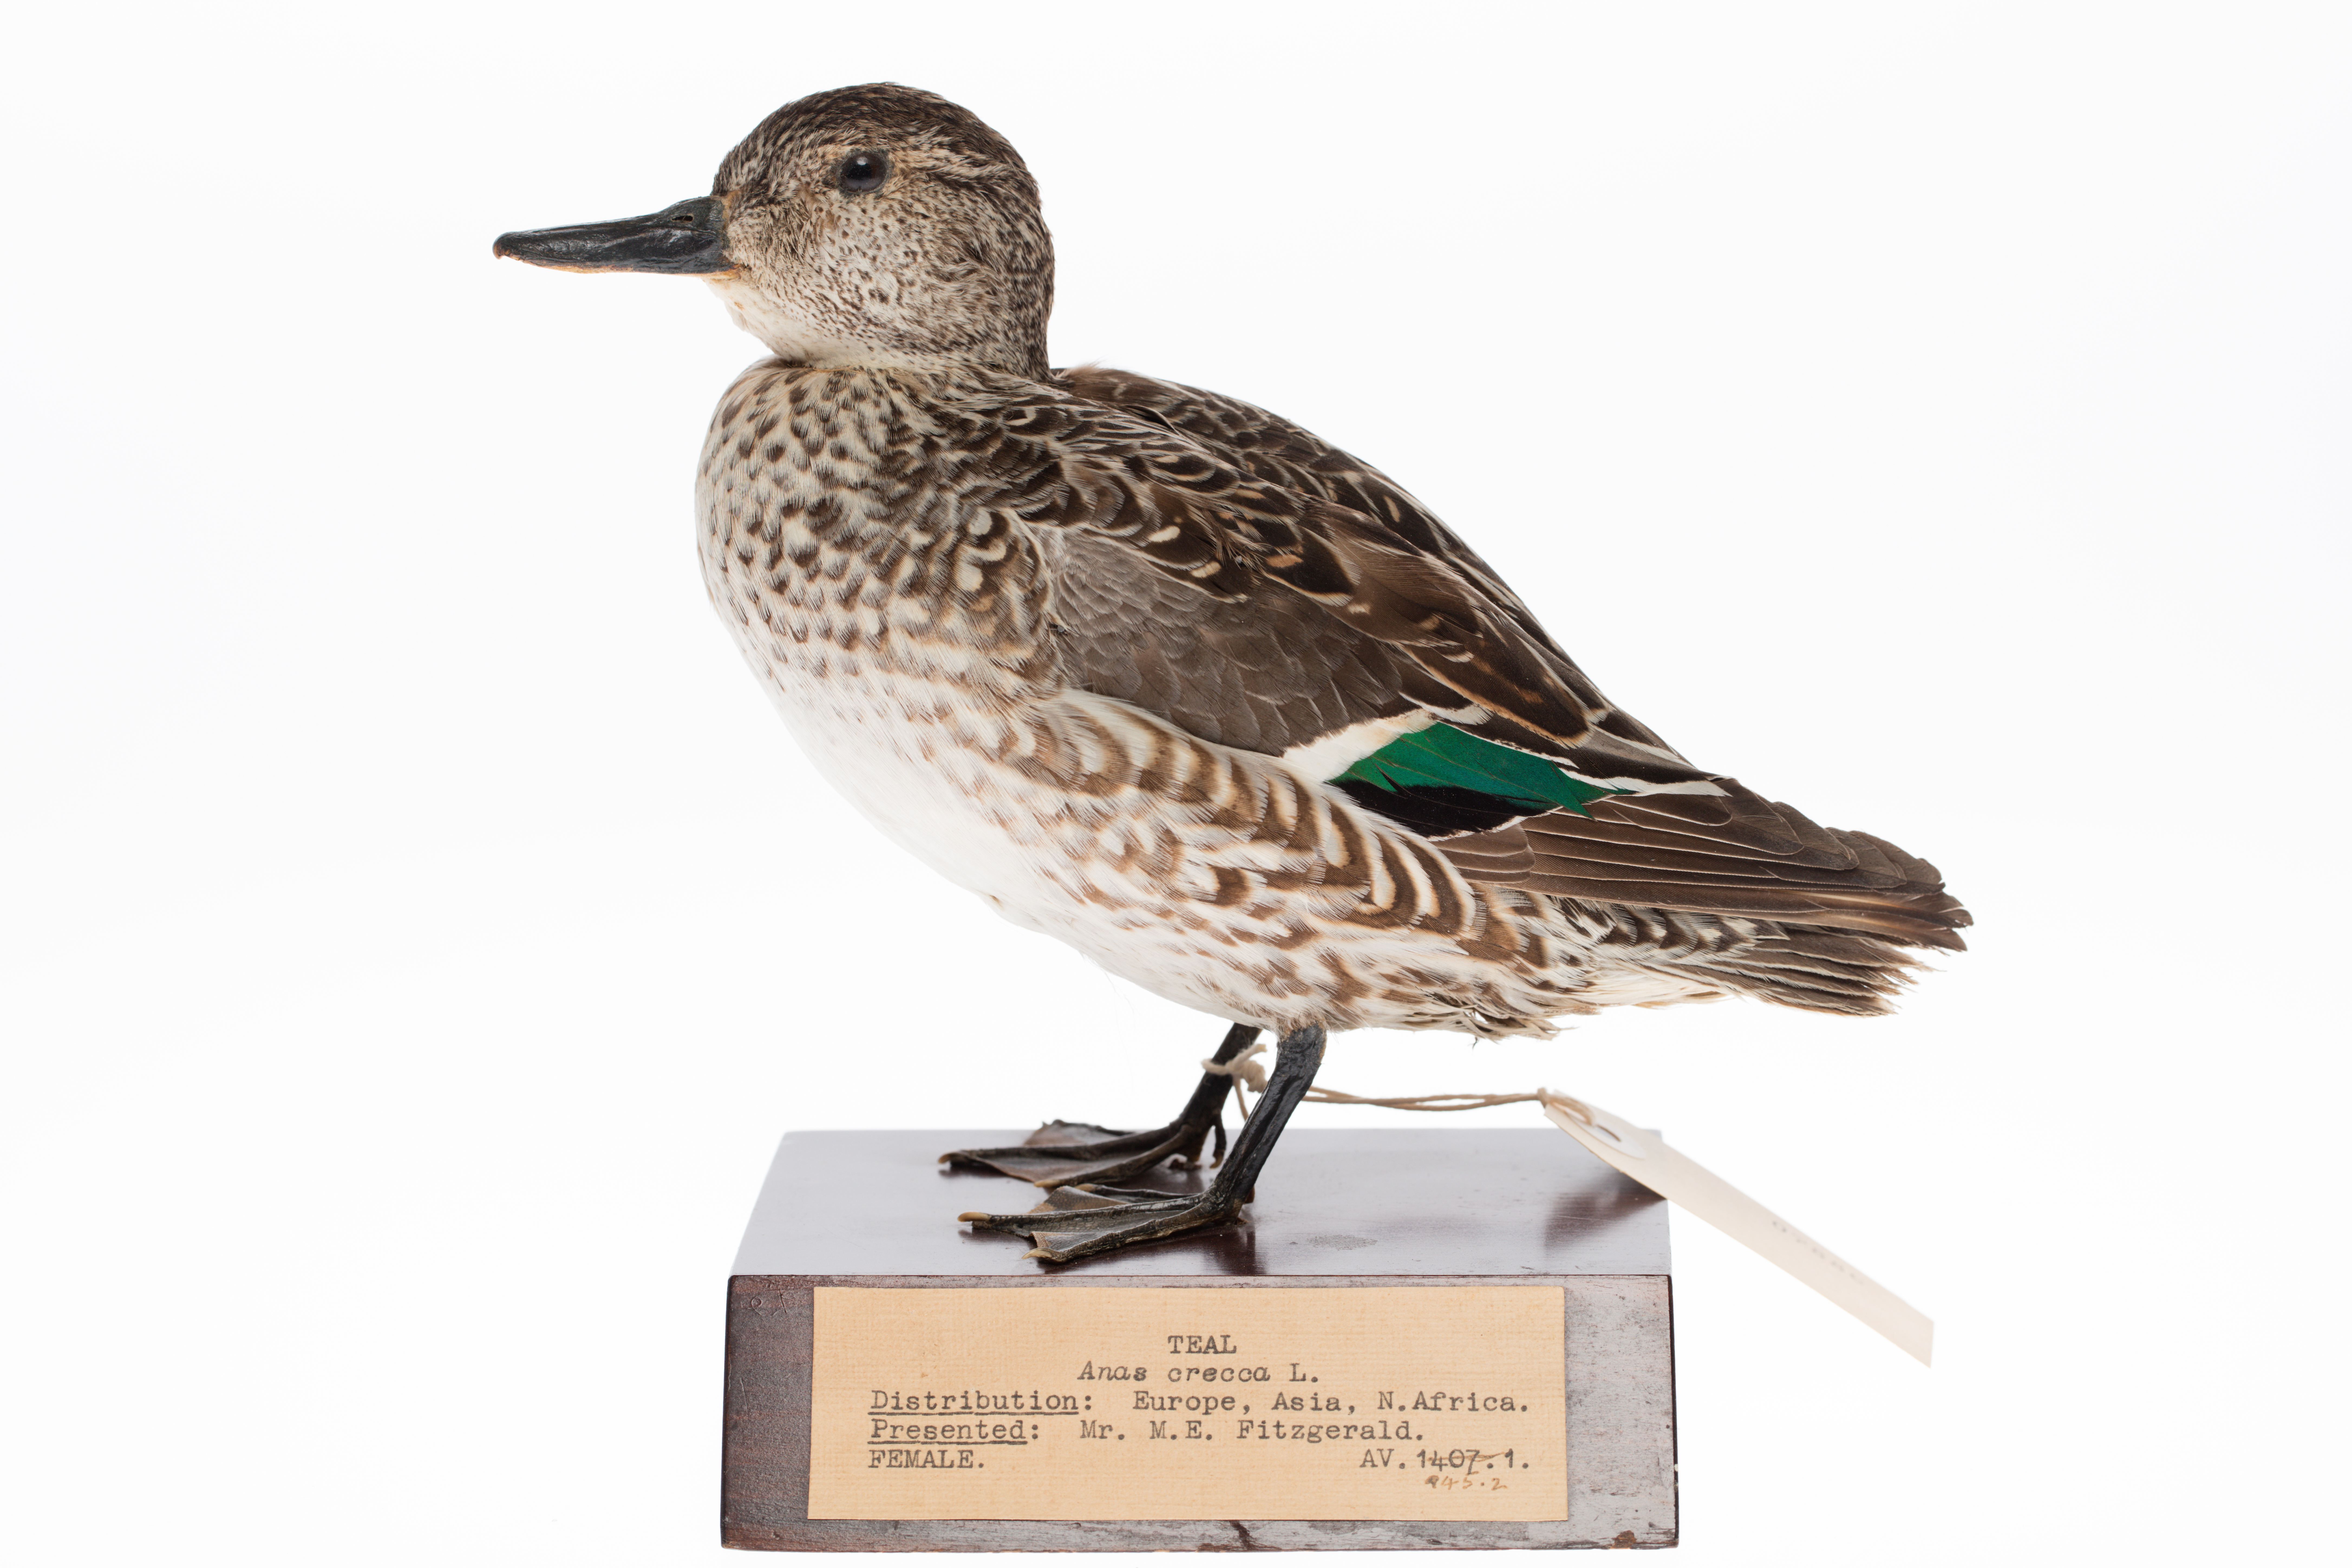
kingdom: Animalia
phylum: Chordata
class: Aves
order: Anseriformes
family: Anatidae
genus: Anas
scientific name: Anas crecca
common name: Eurasian teal
